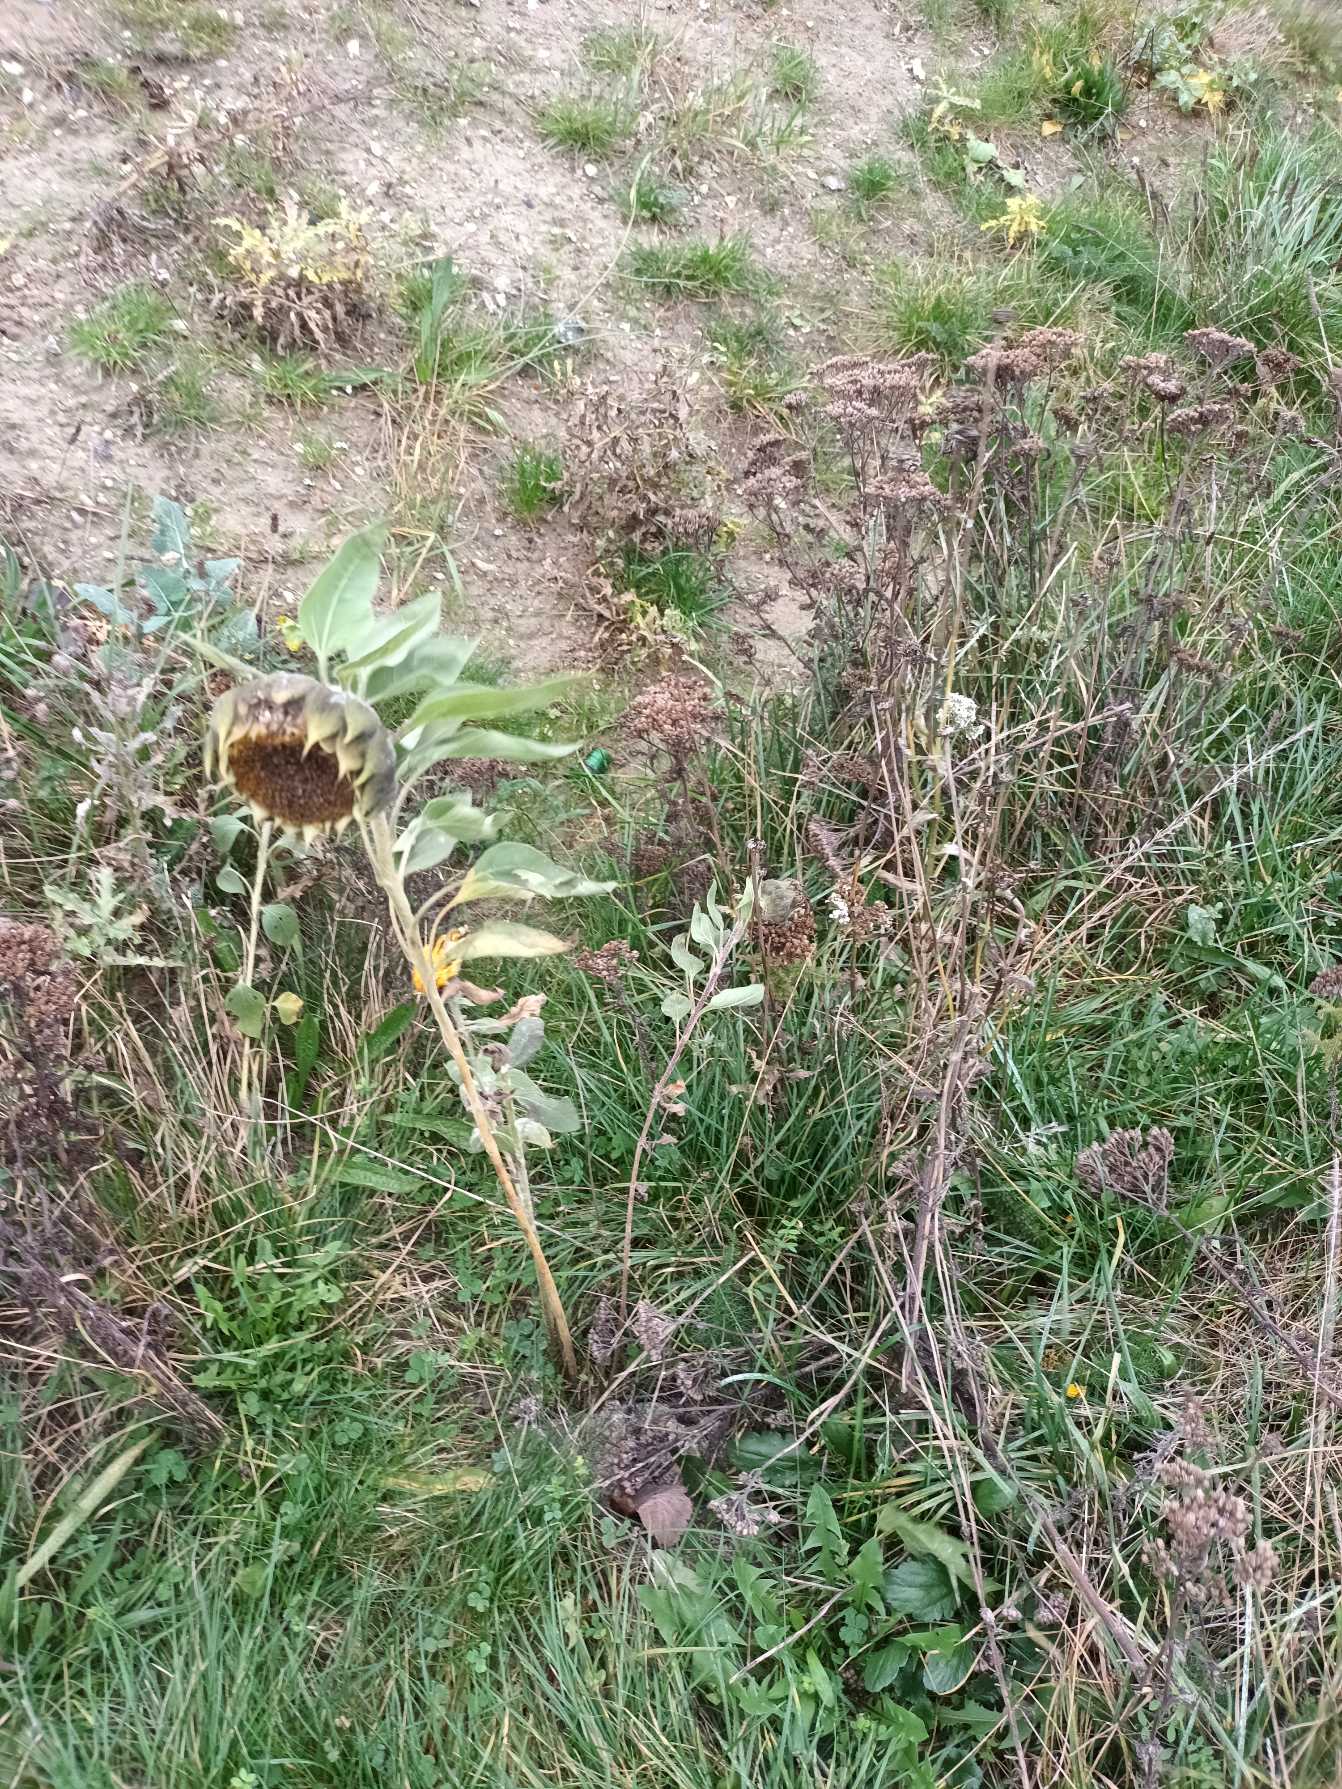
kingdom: Plantae
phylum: Tracheophyta
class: Magnoliopsida
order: Asterales
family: Asteraceae
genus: Helianthus
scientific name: Helianthus annuus
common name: Solsikke
